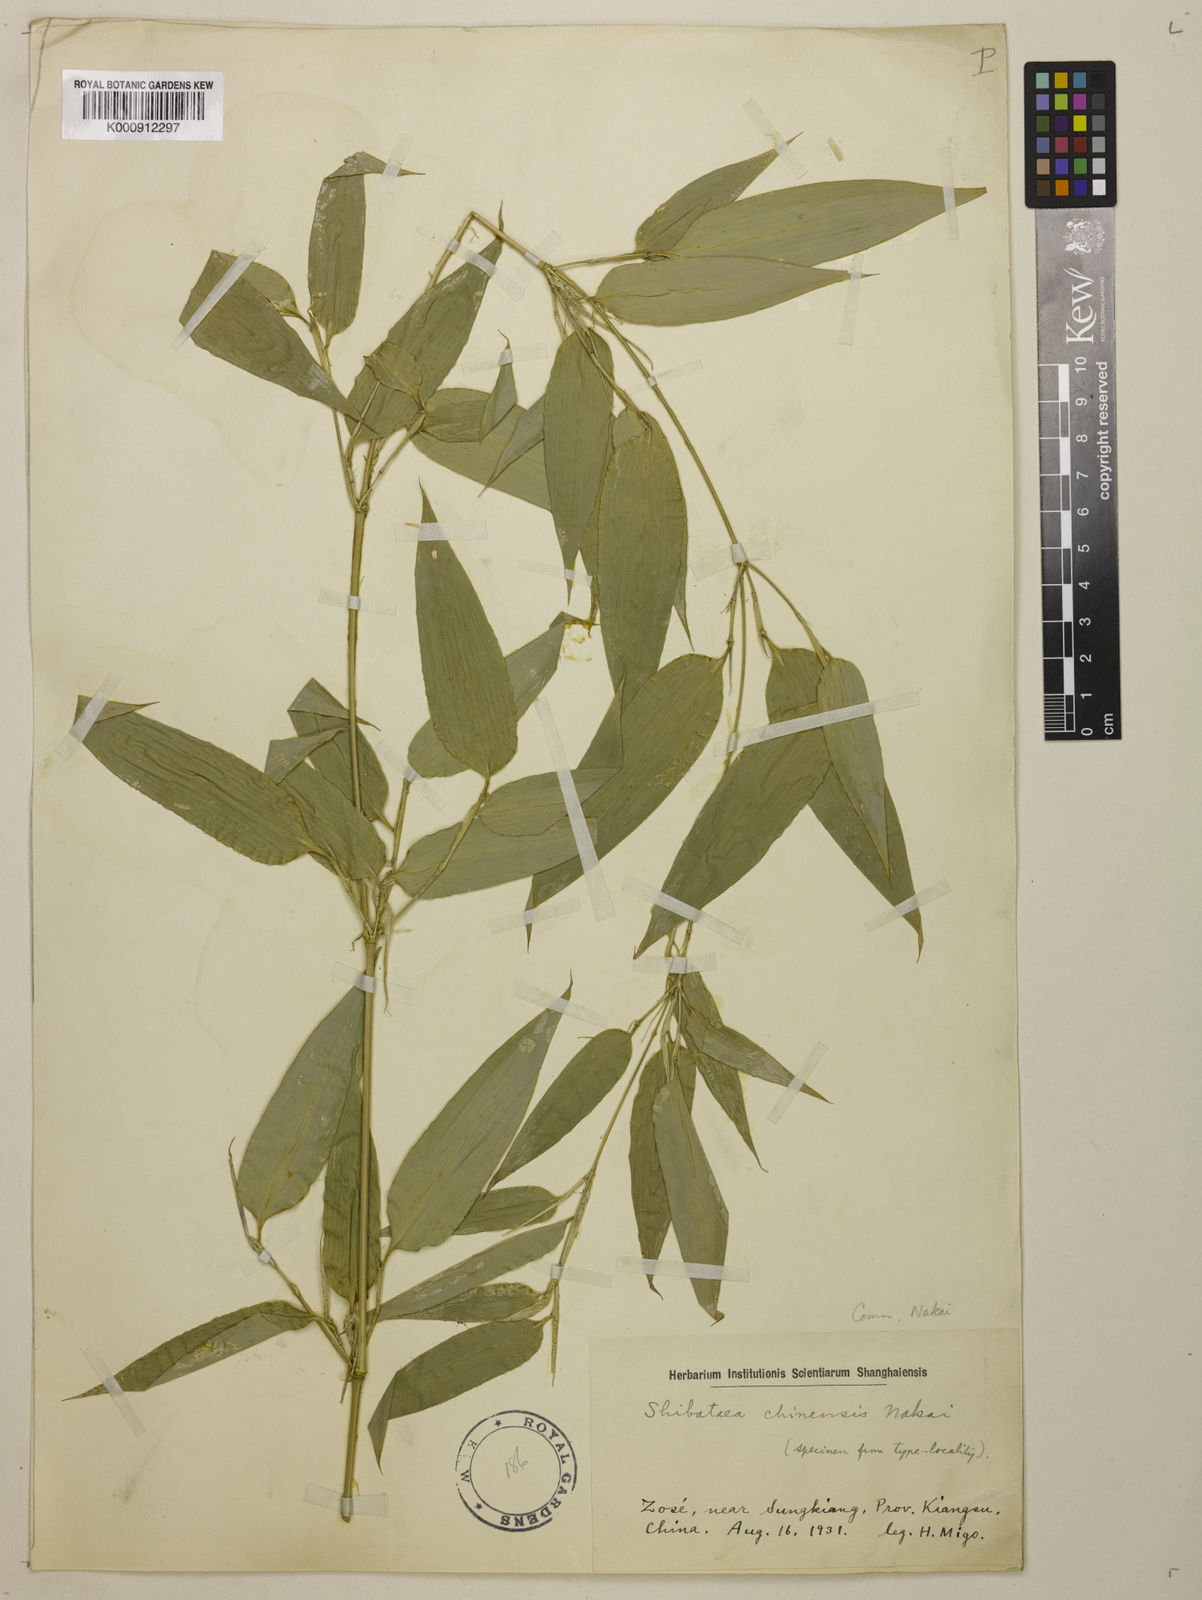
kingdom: Plantae
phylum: Tracheophyta
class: Liliopsida
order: Poales
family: Poaceae
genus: Shibataea
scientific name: Shibataea chinensis
